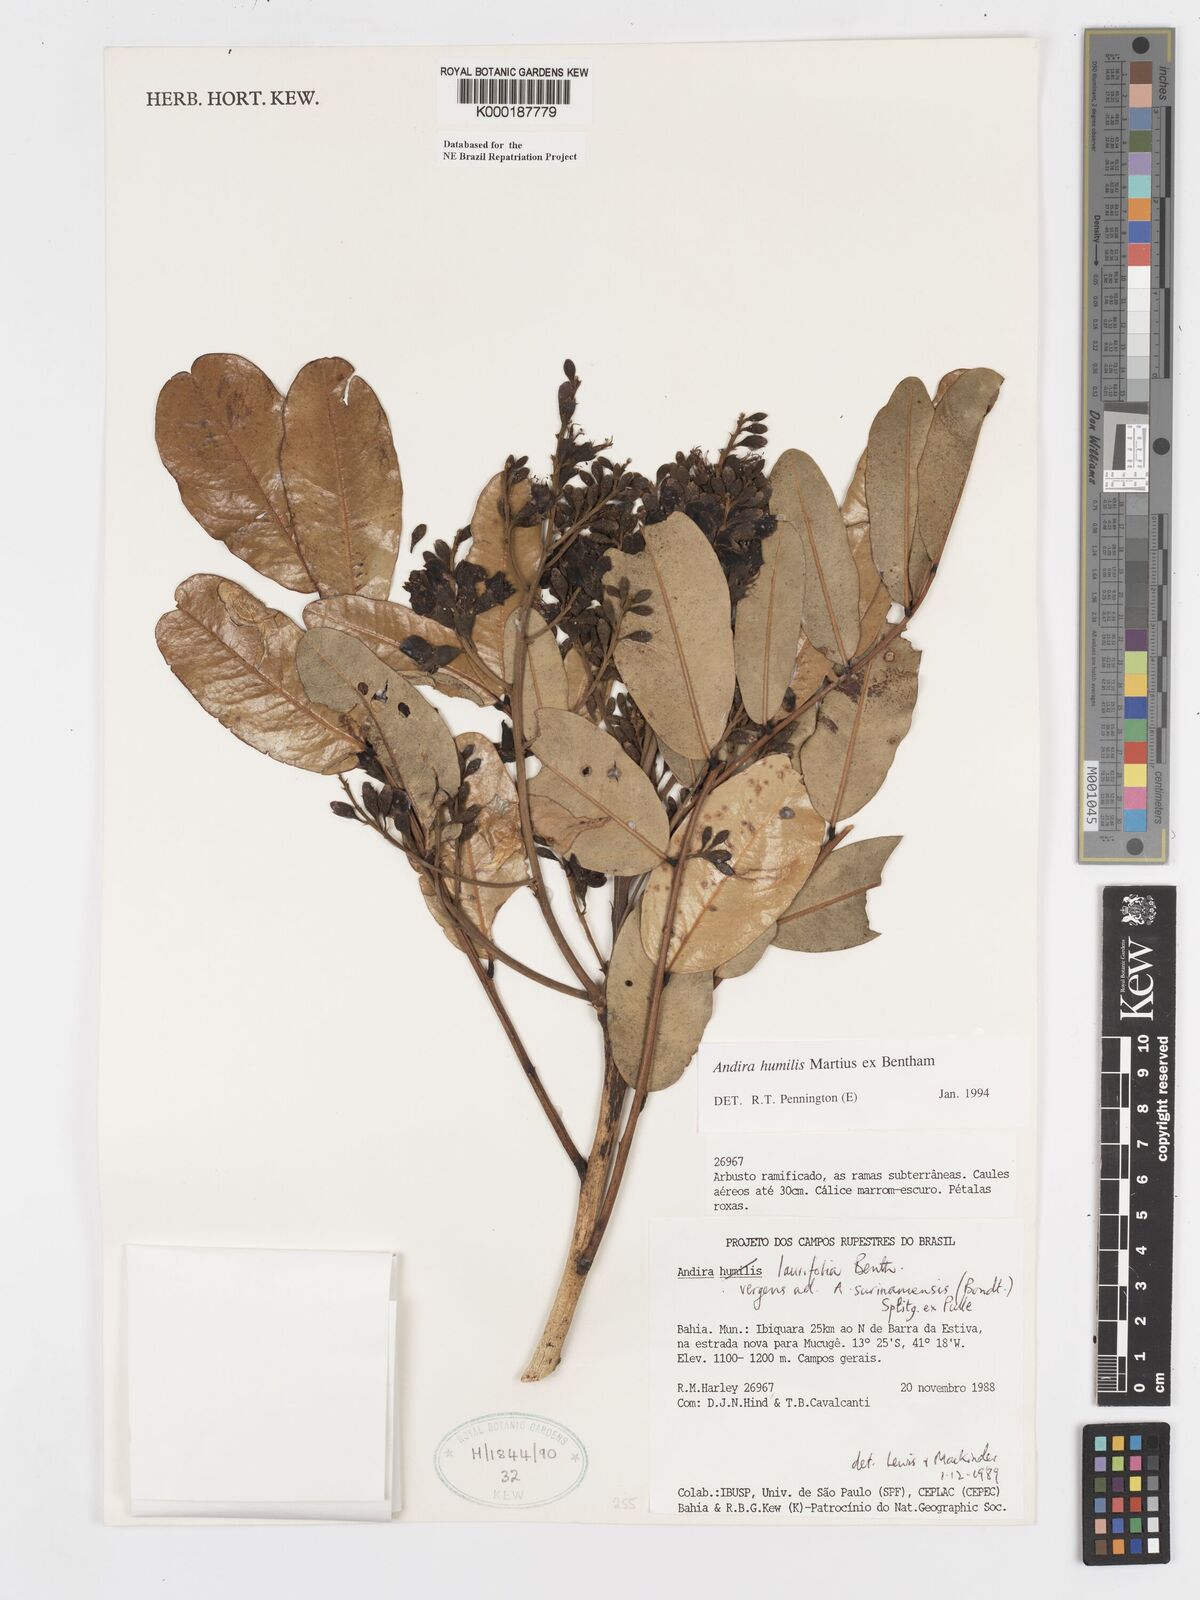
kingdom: Plantae
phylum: Tracheophyta
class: Magnoliopsida
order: Fabales
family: Fabaceae
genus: Andira
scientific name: Andira humilis
